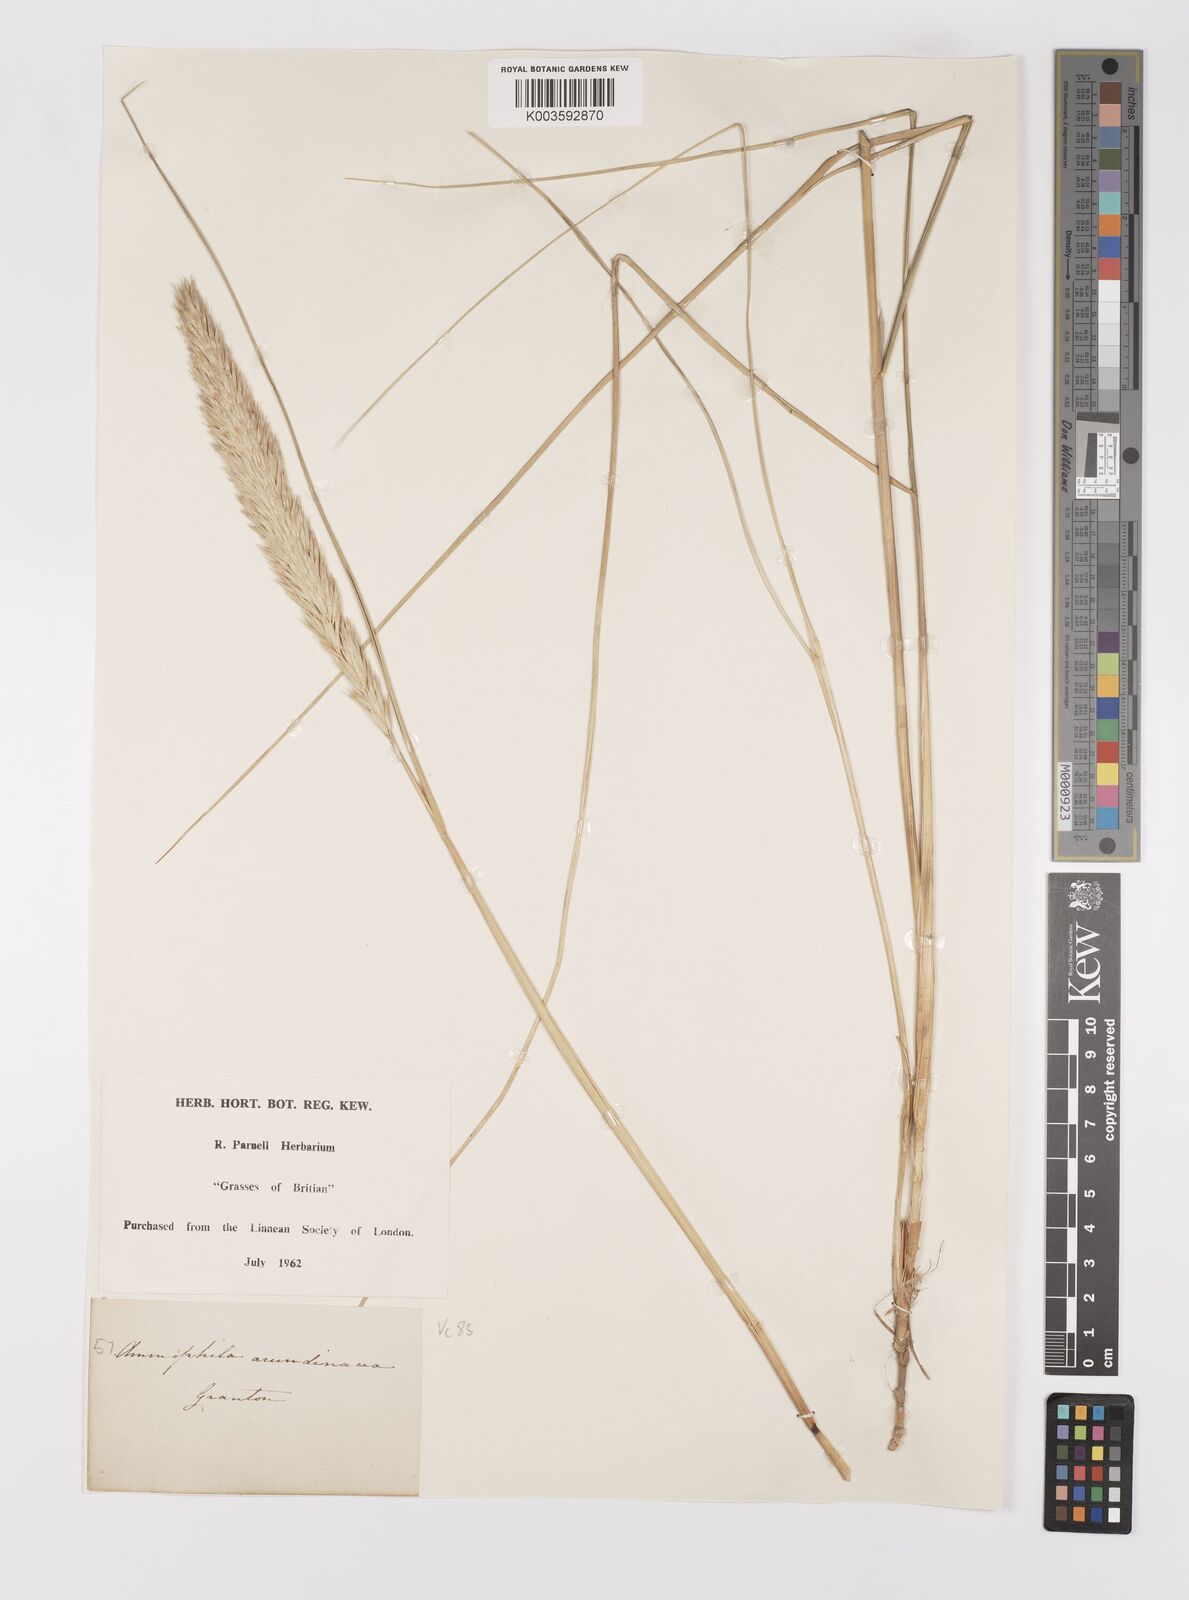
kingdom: Plantae
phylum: Tracheophyta
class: Liliopsida
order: Poales
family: Poaceae
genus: Calamagrostis
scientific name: Calamagrostis arenaria
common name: European beachgrass
